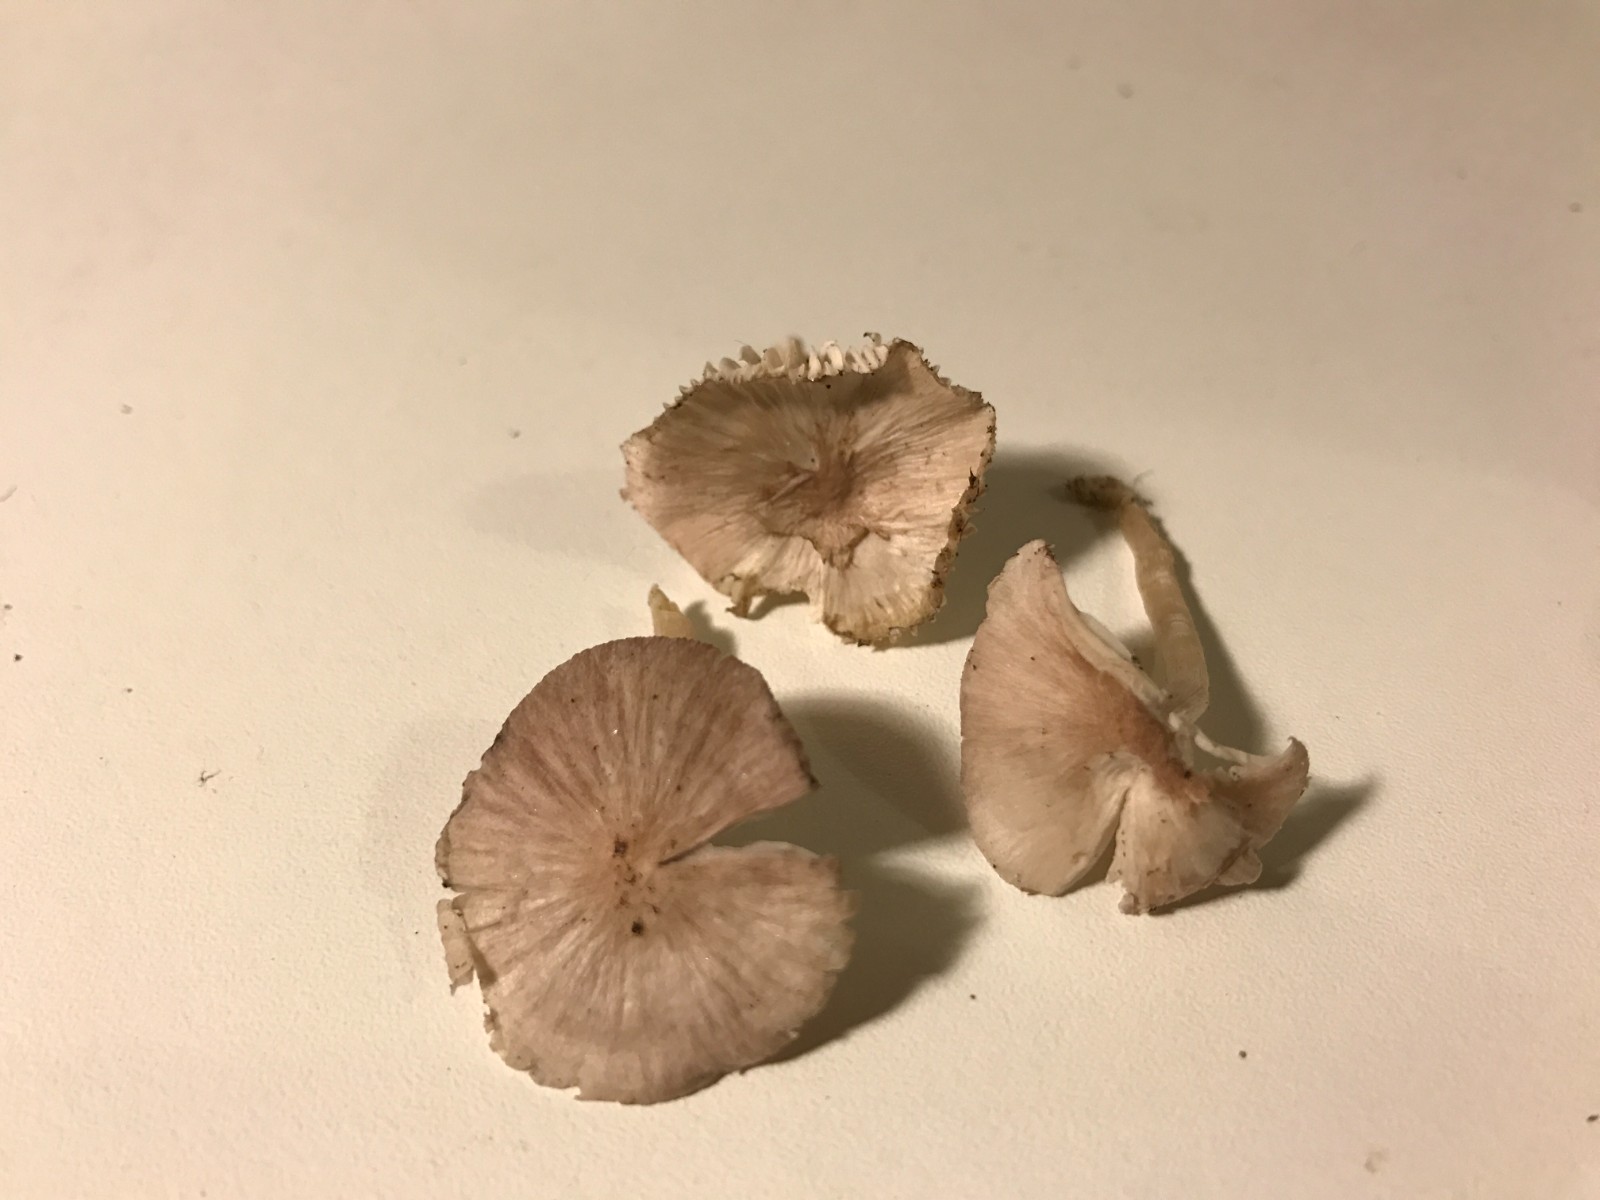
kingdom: Fungi
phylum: Basidiomycota
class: Agaricomycetes
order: Agaricales
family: Hygrophoraceae
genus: Cuphophyllus
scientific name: Cuphophyllus
